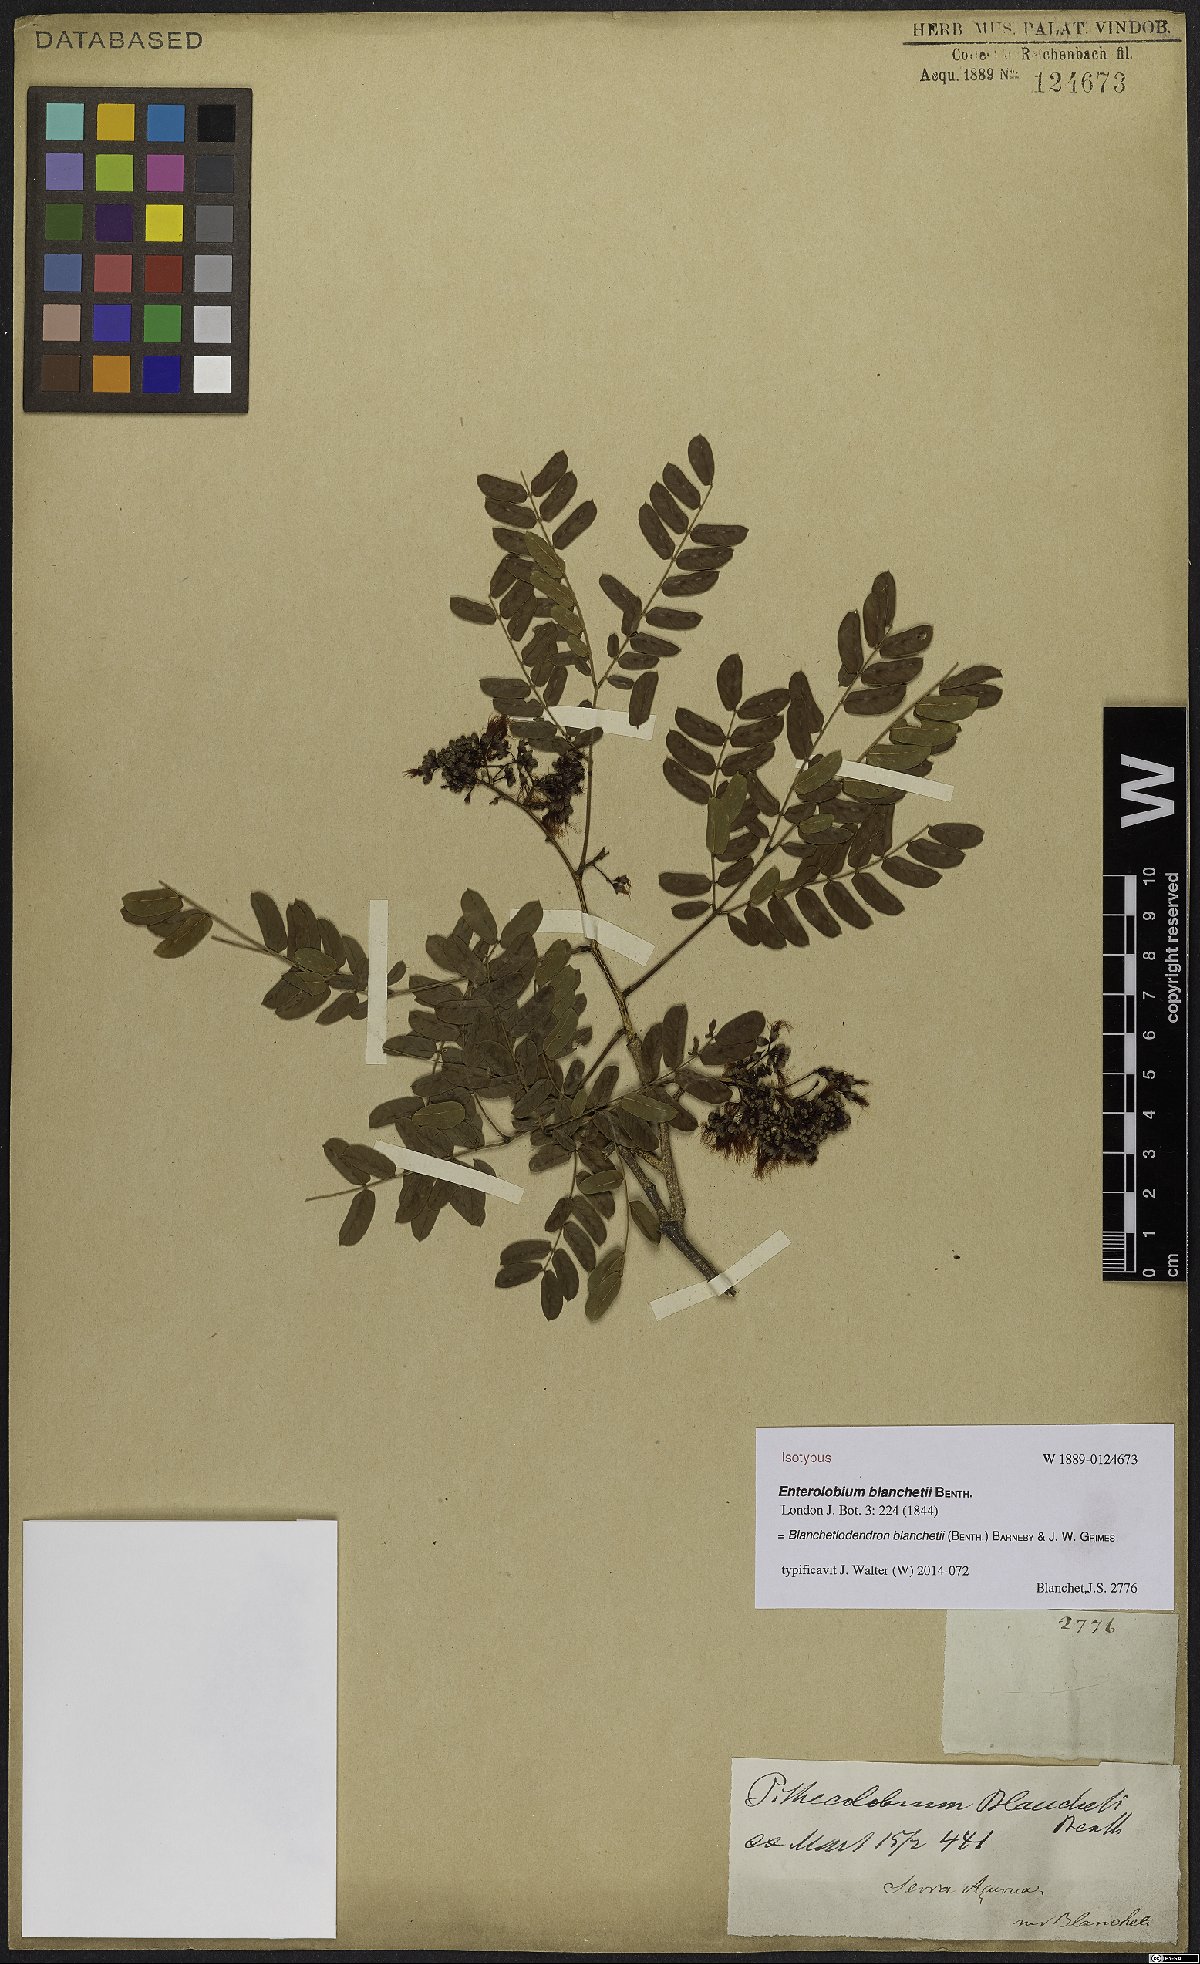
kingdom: Plantae
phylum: Tracheophyta
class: Magnoliopsida
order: Fabales
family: Fabaceae
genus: Blanchetiodendron
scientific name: Blanchetiodendron blanchetii
